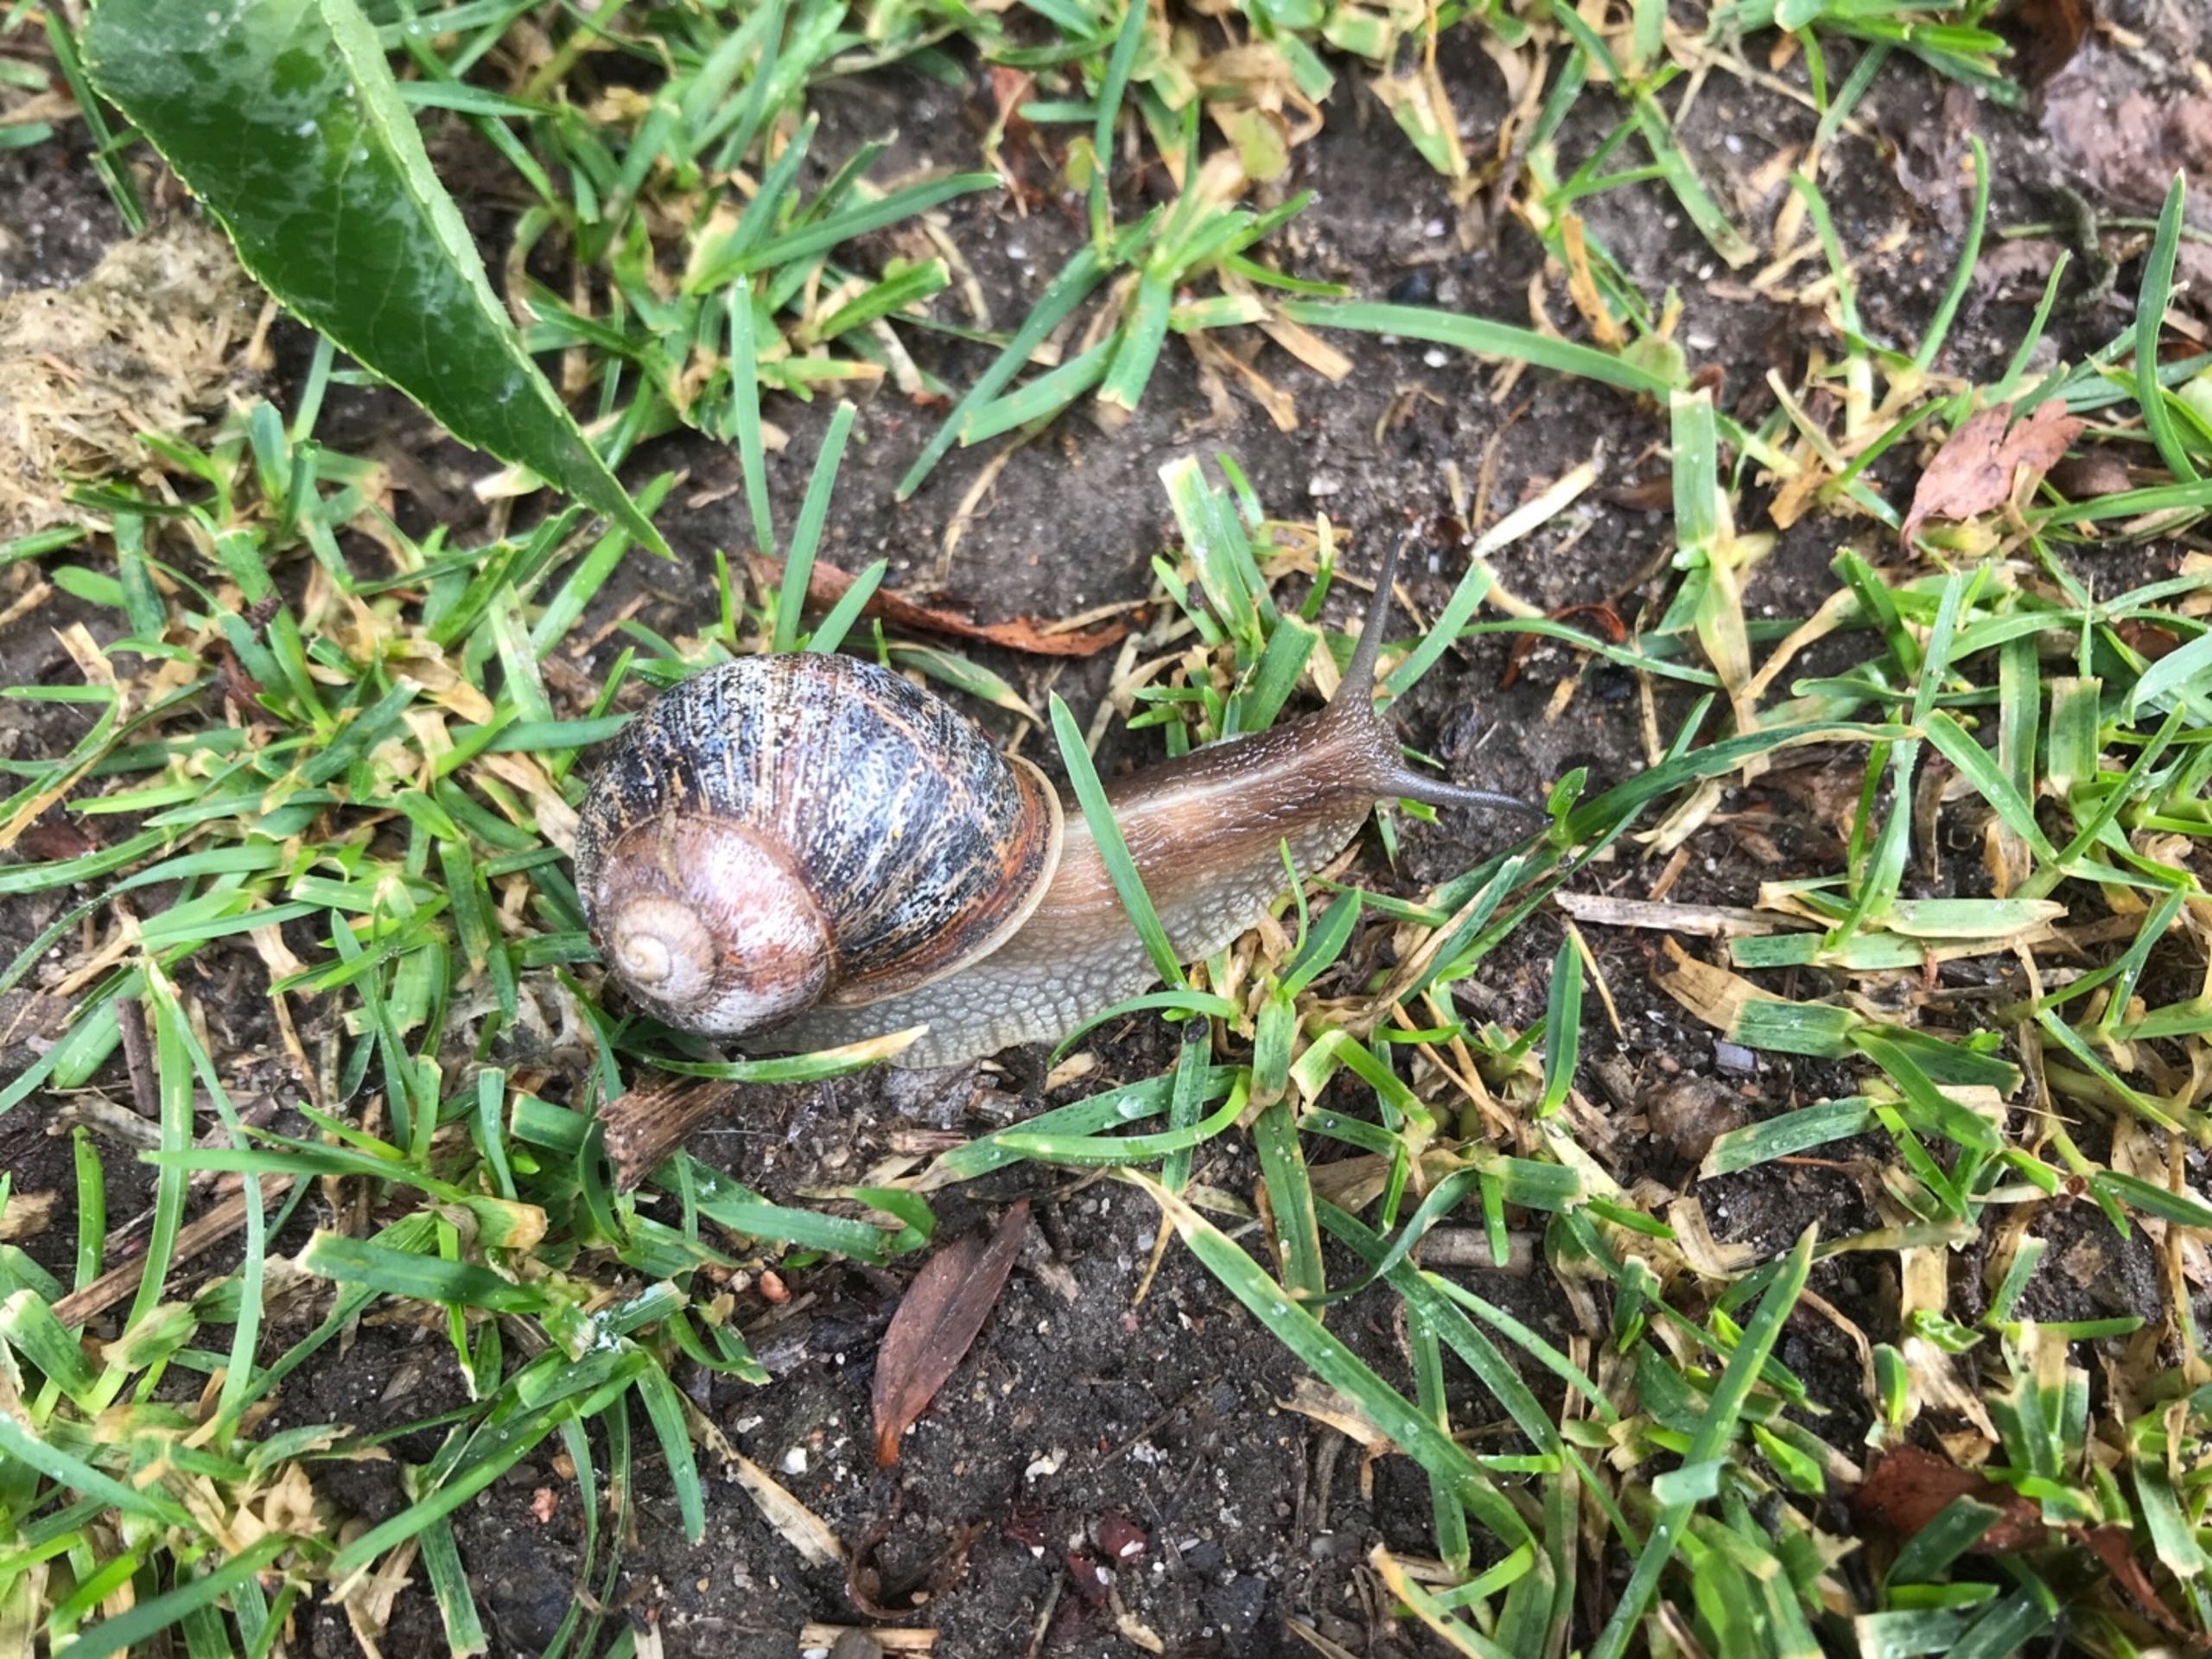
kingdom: Animalia
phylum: Mollusca
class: Gastropoda
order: Stylommatophora
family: Helicidae
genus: Cornu
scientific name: Cornu aspersum
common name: Plettet voldsnegl
